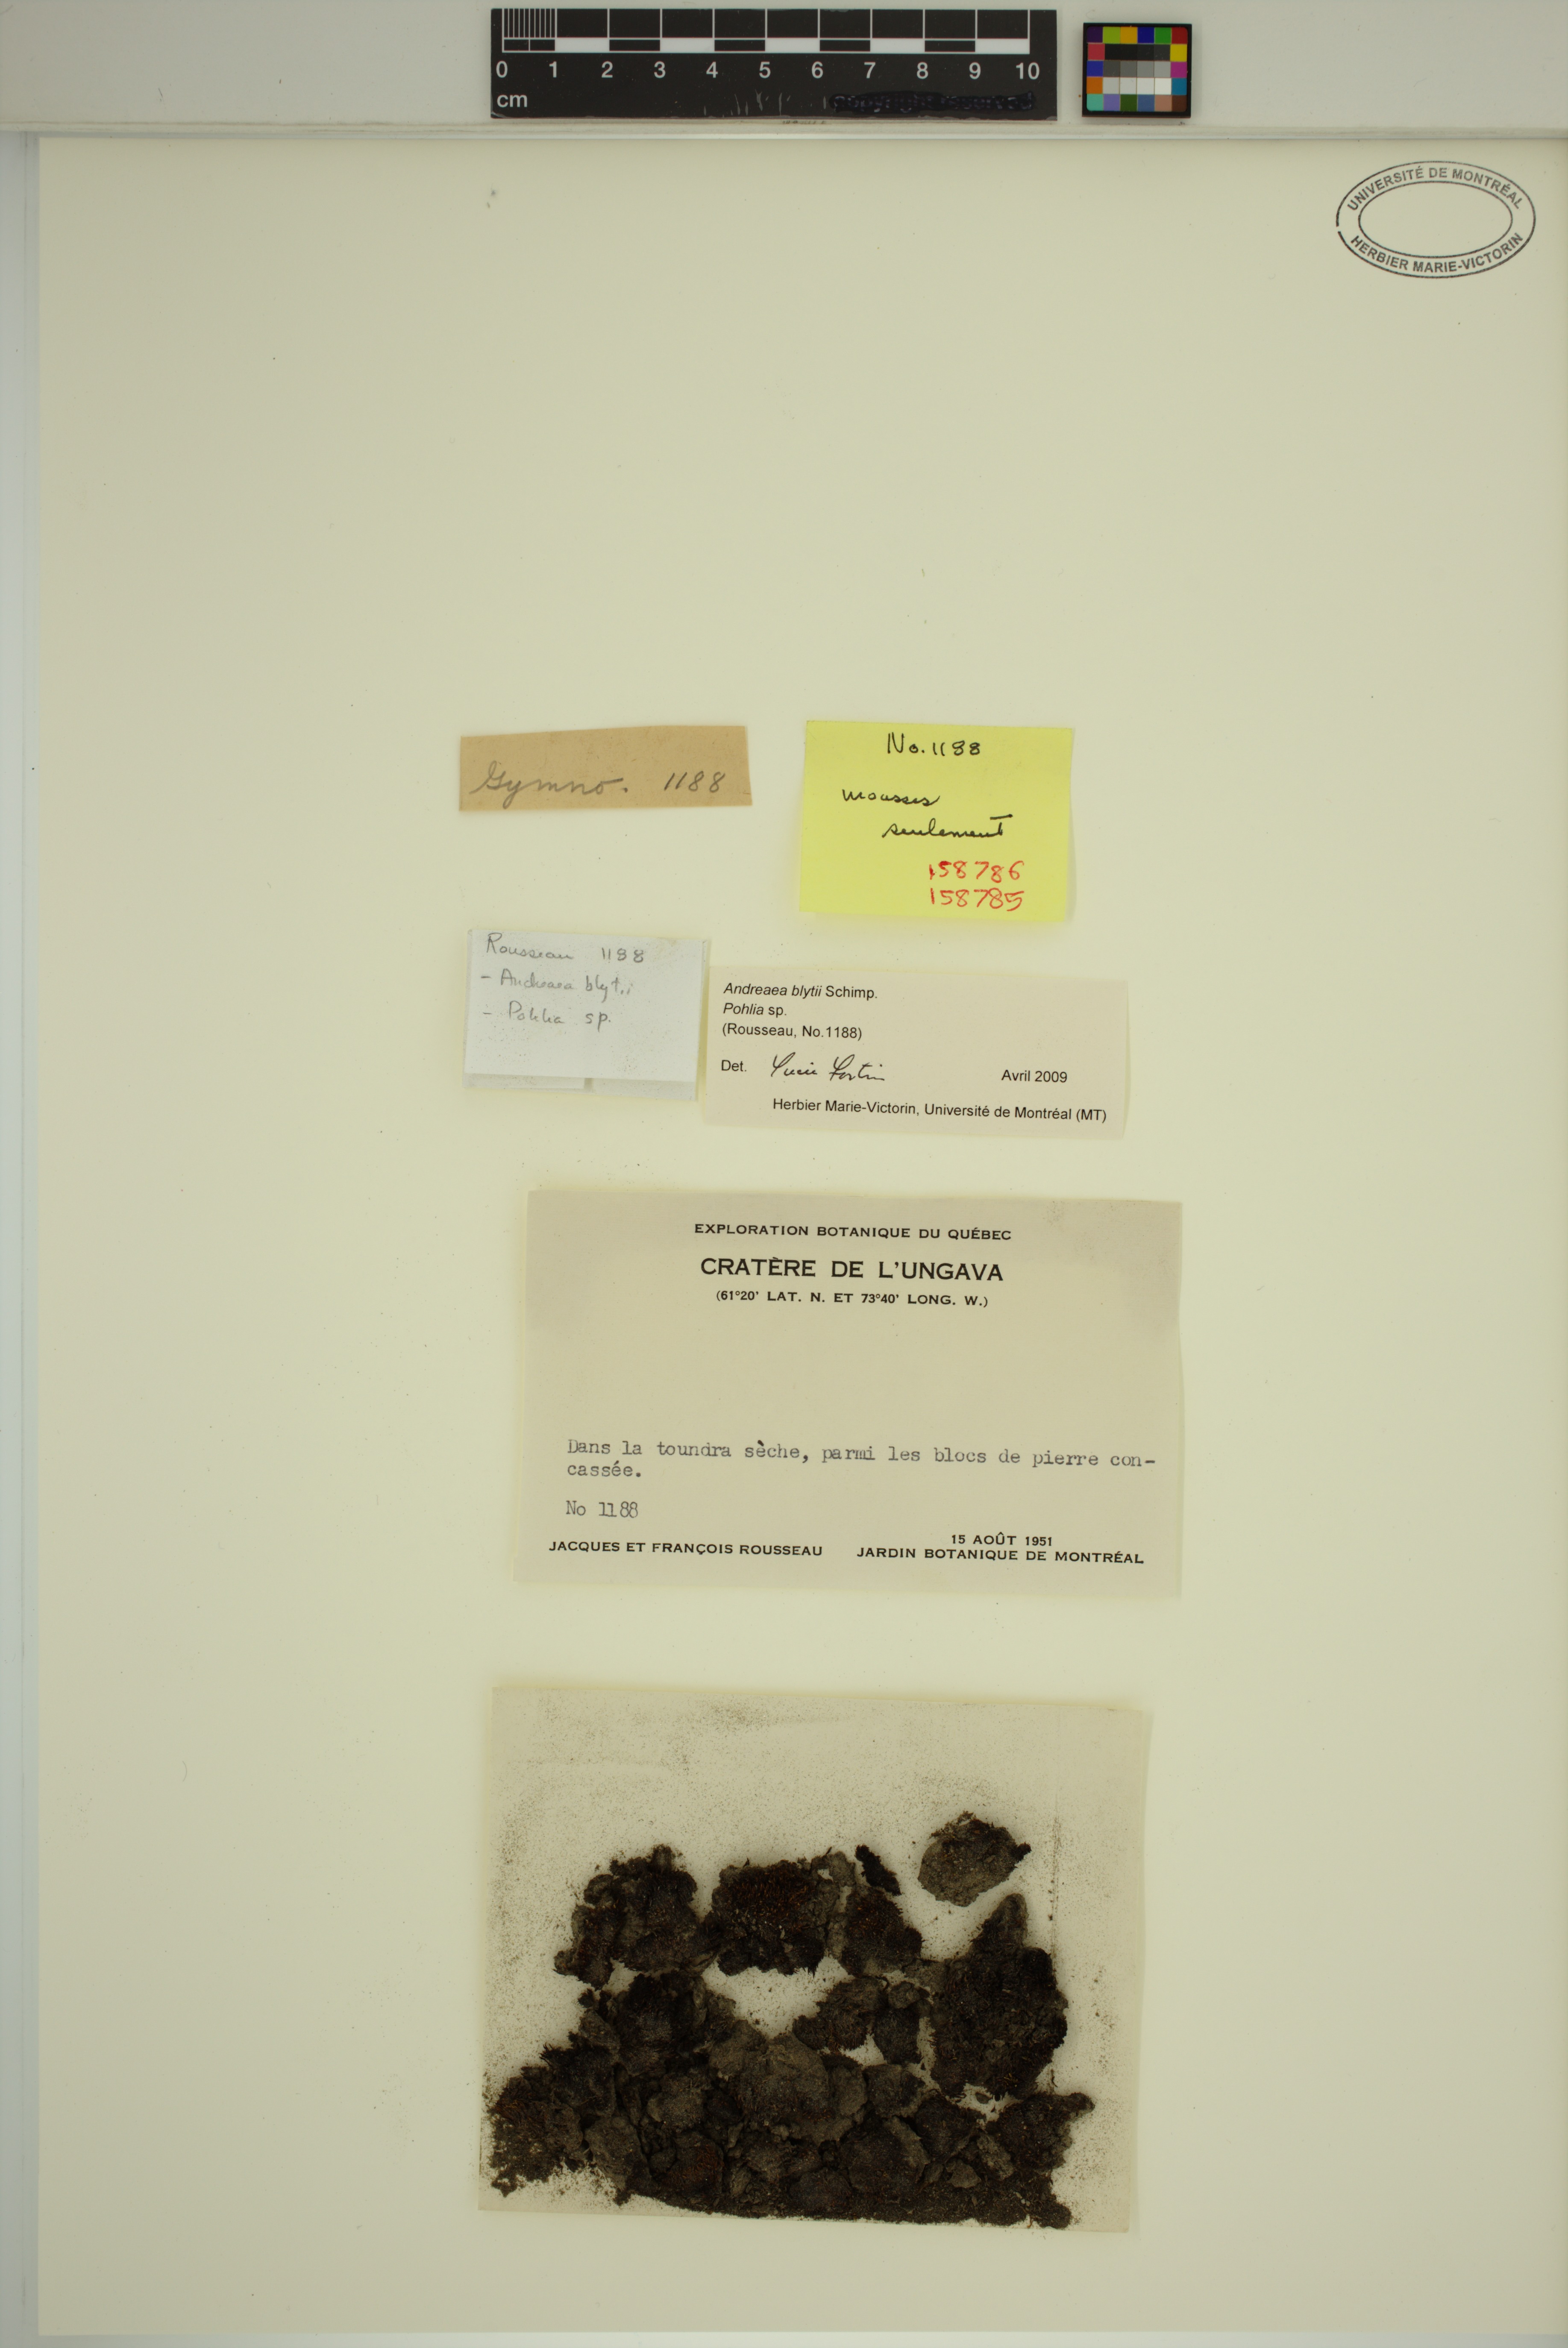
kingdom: Plantae
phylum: Bryophyta
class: Andreaeopsida
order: Andreaeales
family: Andreaeaceae
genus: Andreaea
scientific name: Andreaea blyttii
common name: Blytt's rock moss
